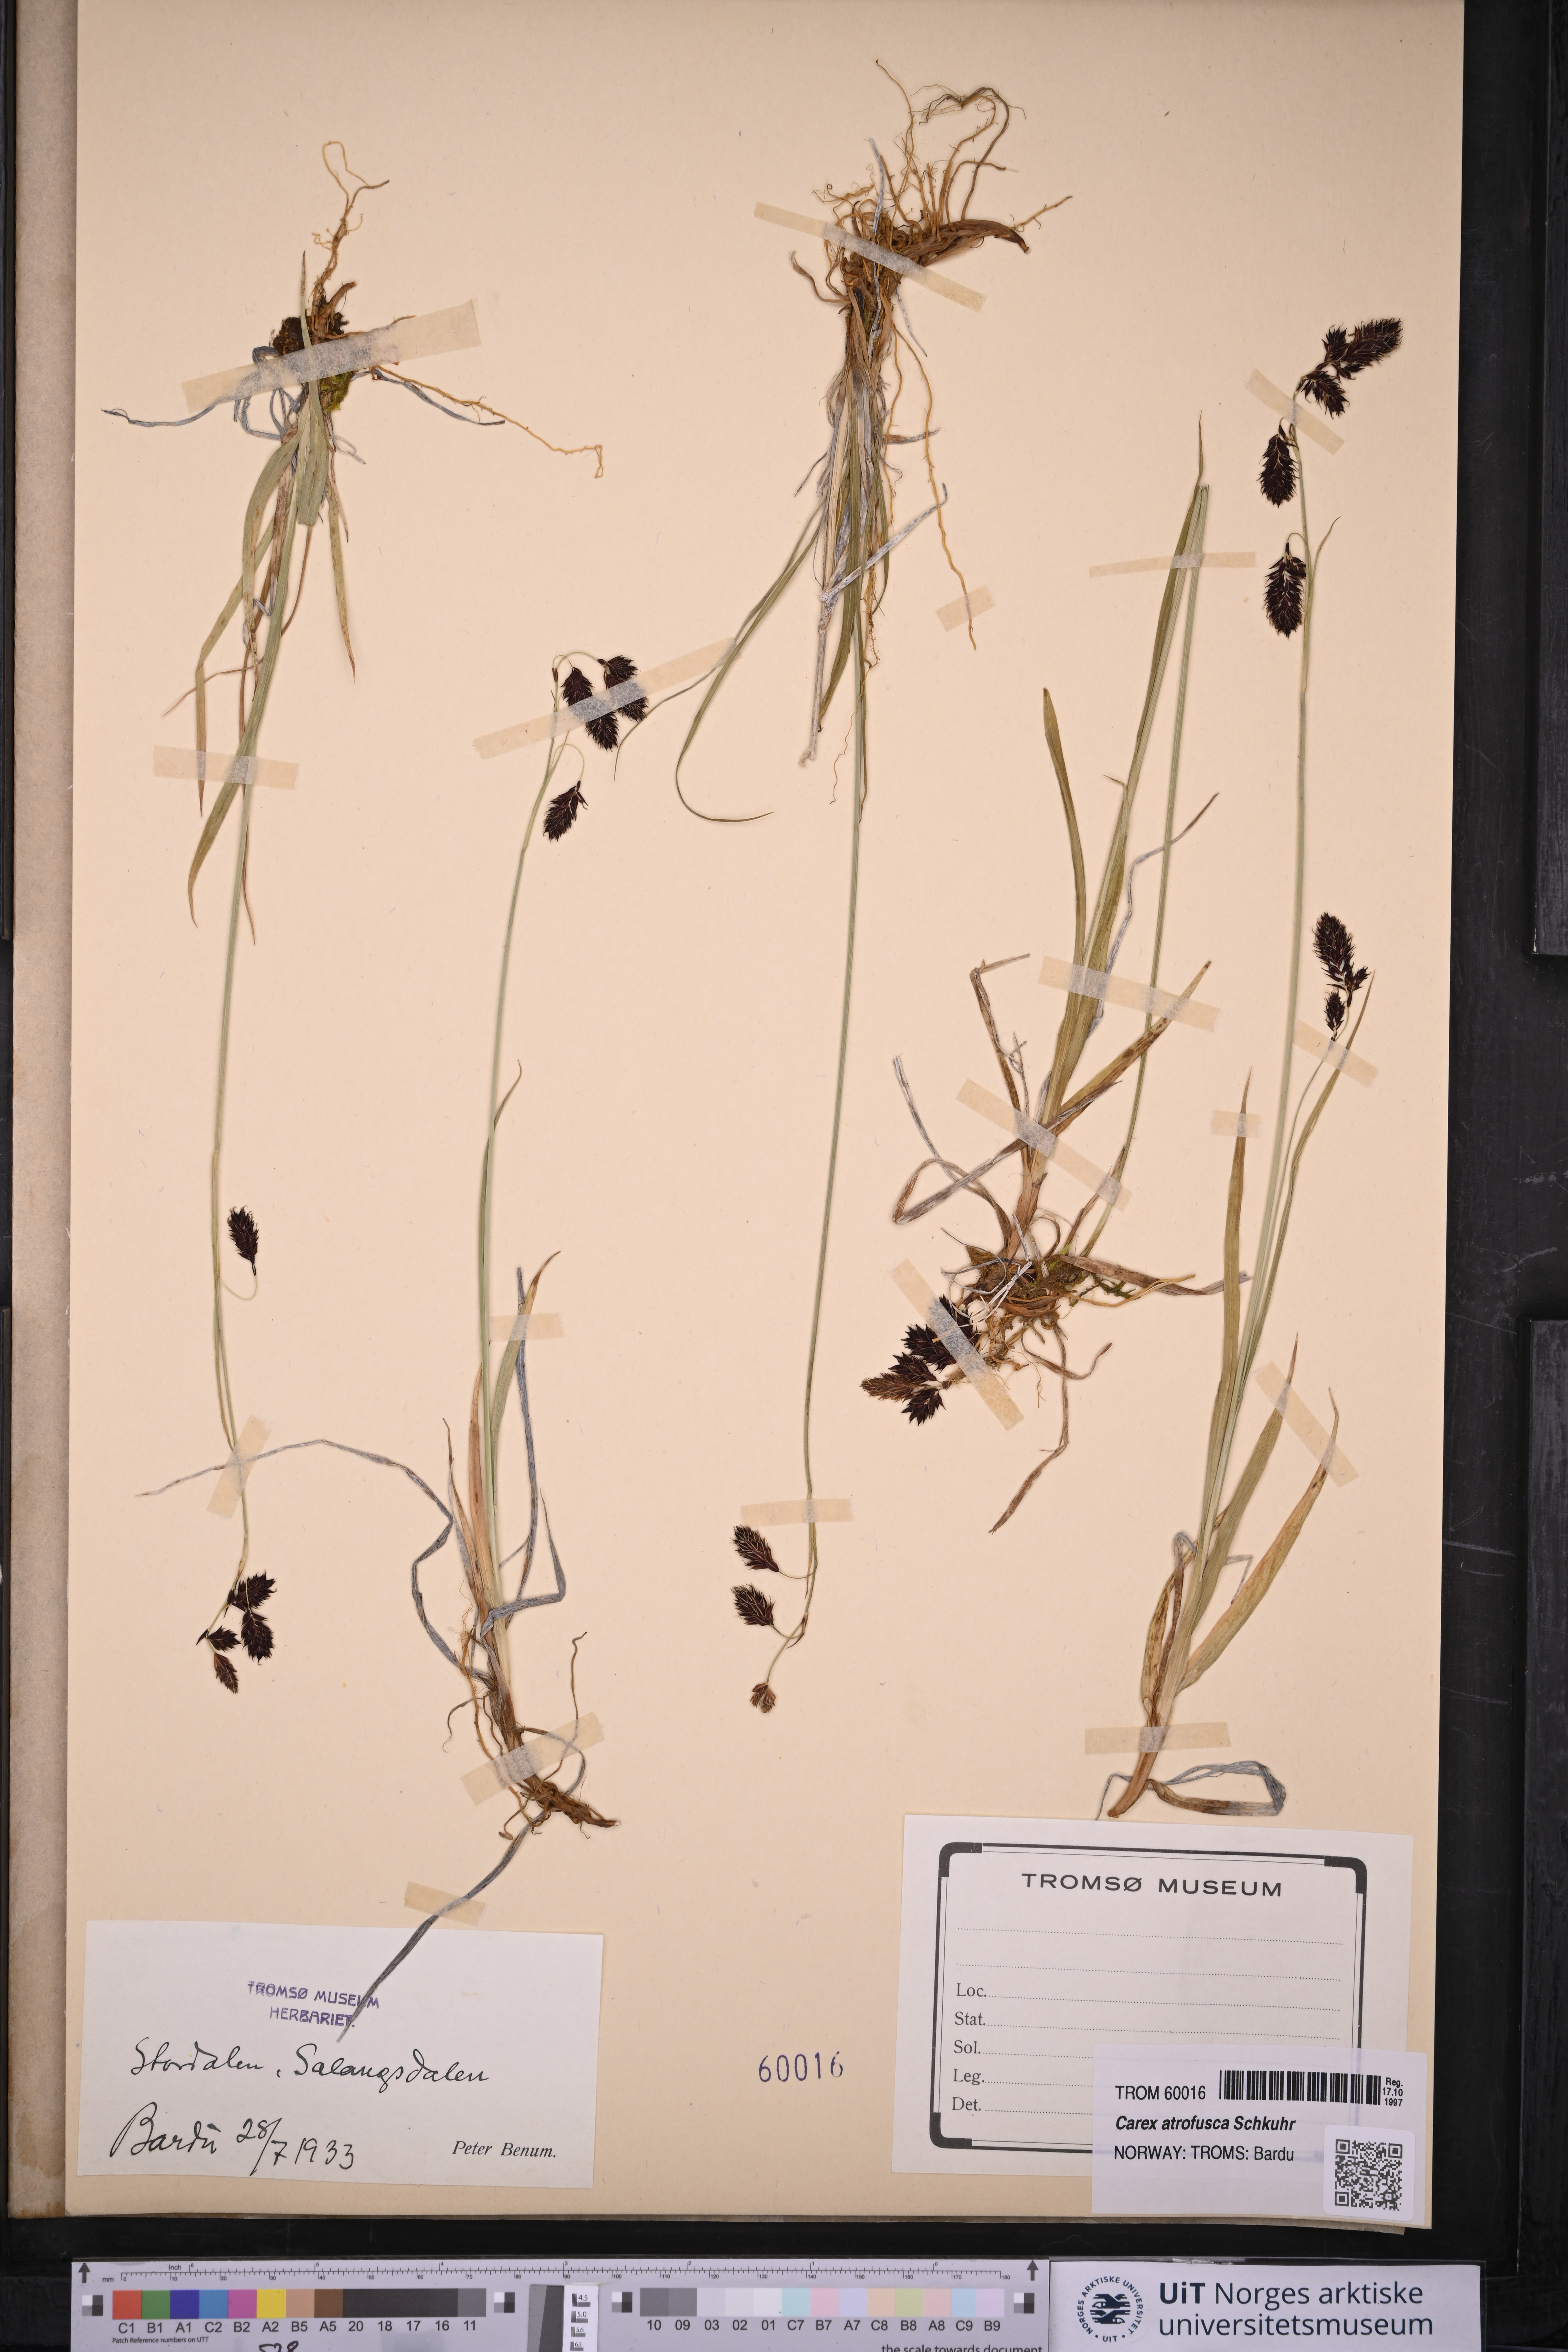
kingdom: Plantae
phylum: Tracheophyta
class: Liliopsida
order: Poales
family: Cyperaceae
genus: Carex
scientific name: Carex atrofusca
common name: Scorched alpine-sedge
